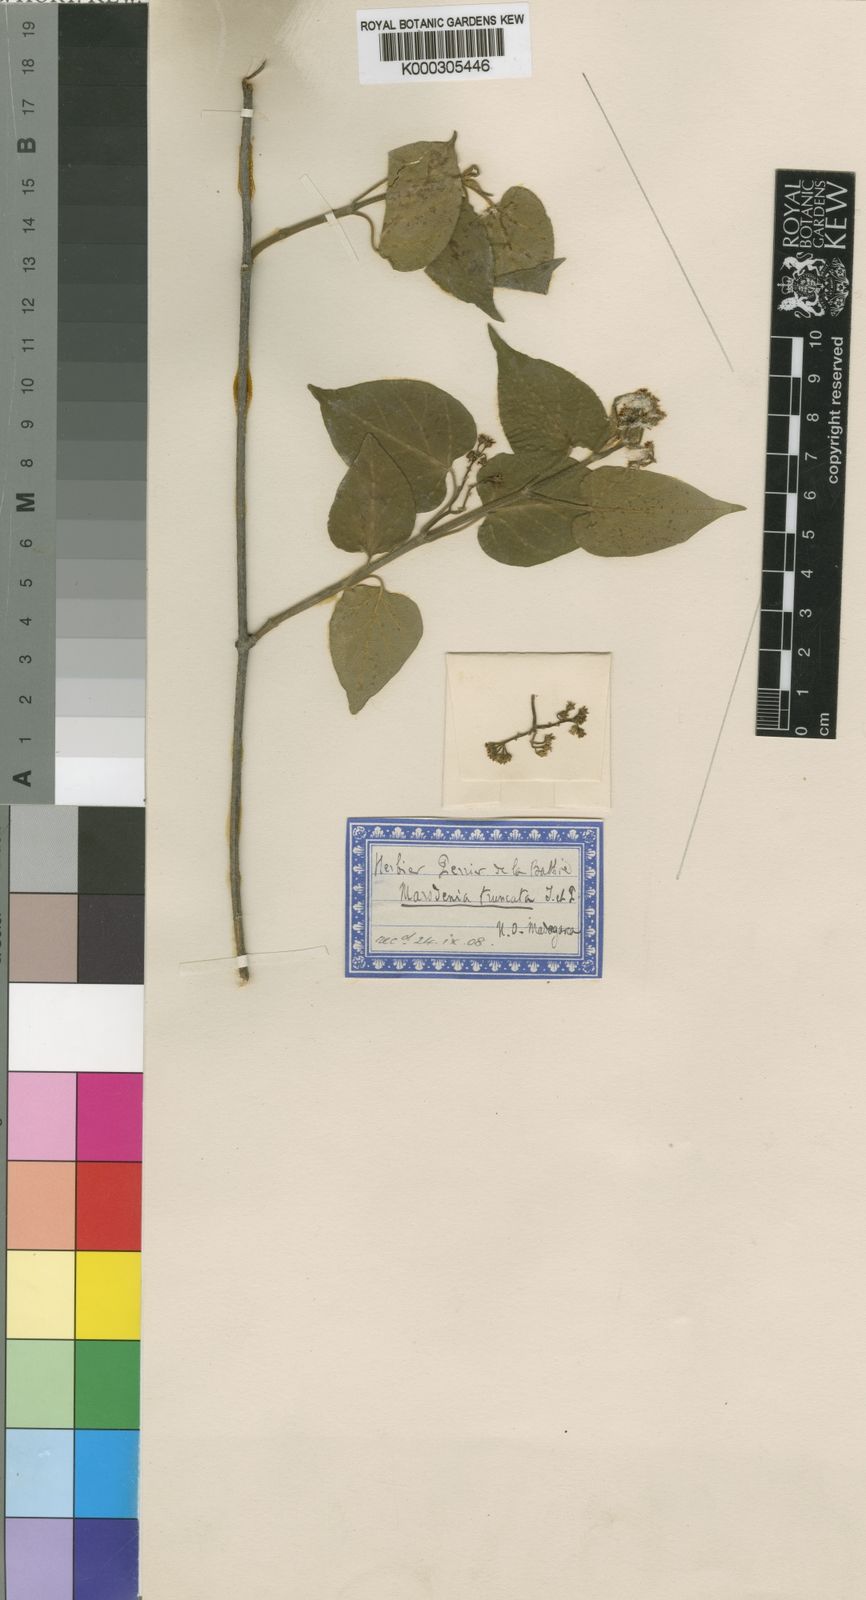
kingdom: Plantae
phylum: Tracheophyta
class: Magnoliopsida
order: Gentianales
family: Apocynaceae
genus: Gongronemopsis
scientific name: Gongronemopsis truncata
